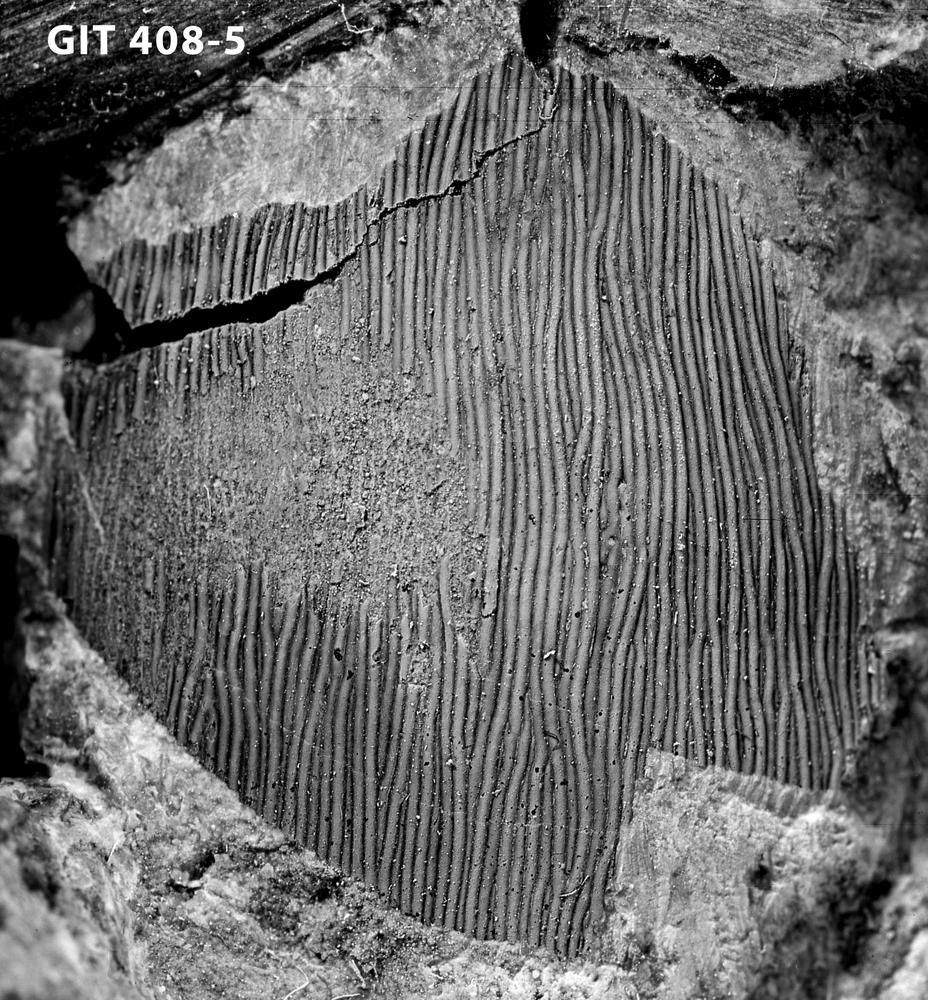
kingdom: Animalia
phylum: Chordata
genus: Archegonaspis
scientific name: Archegonaspis
